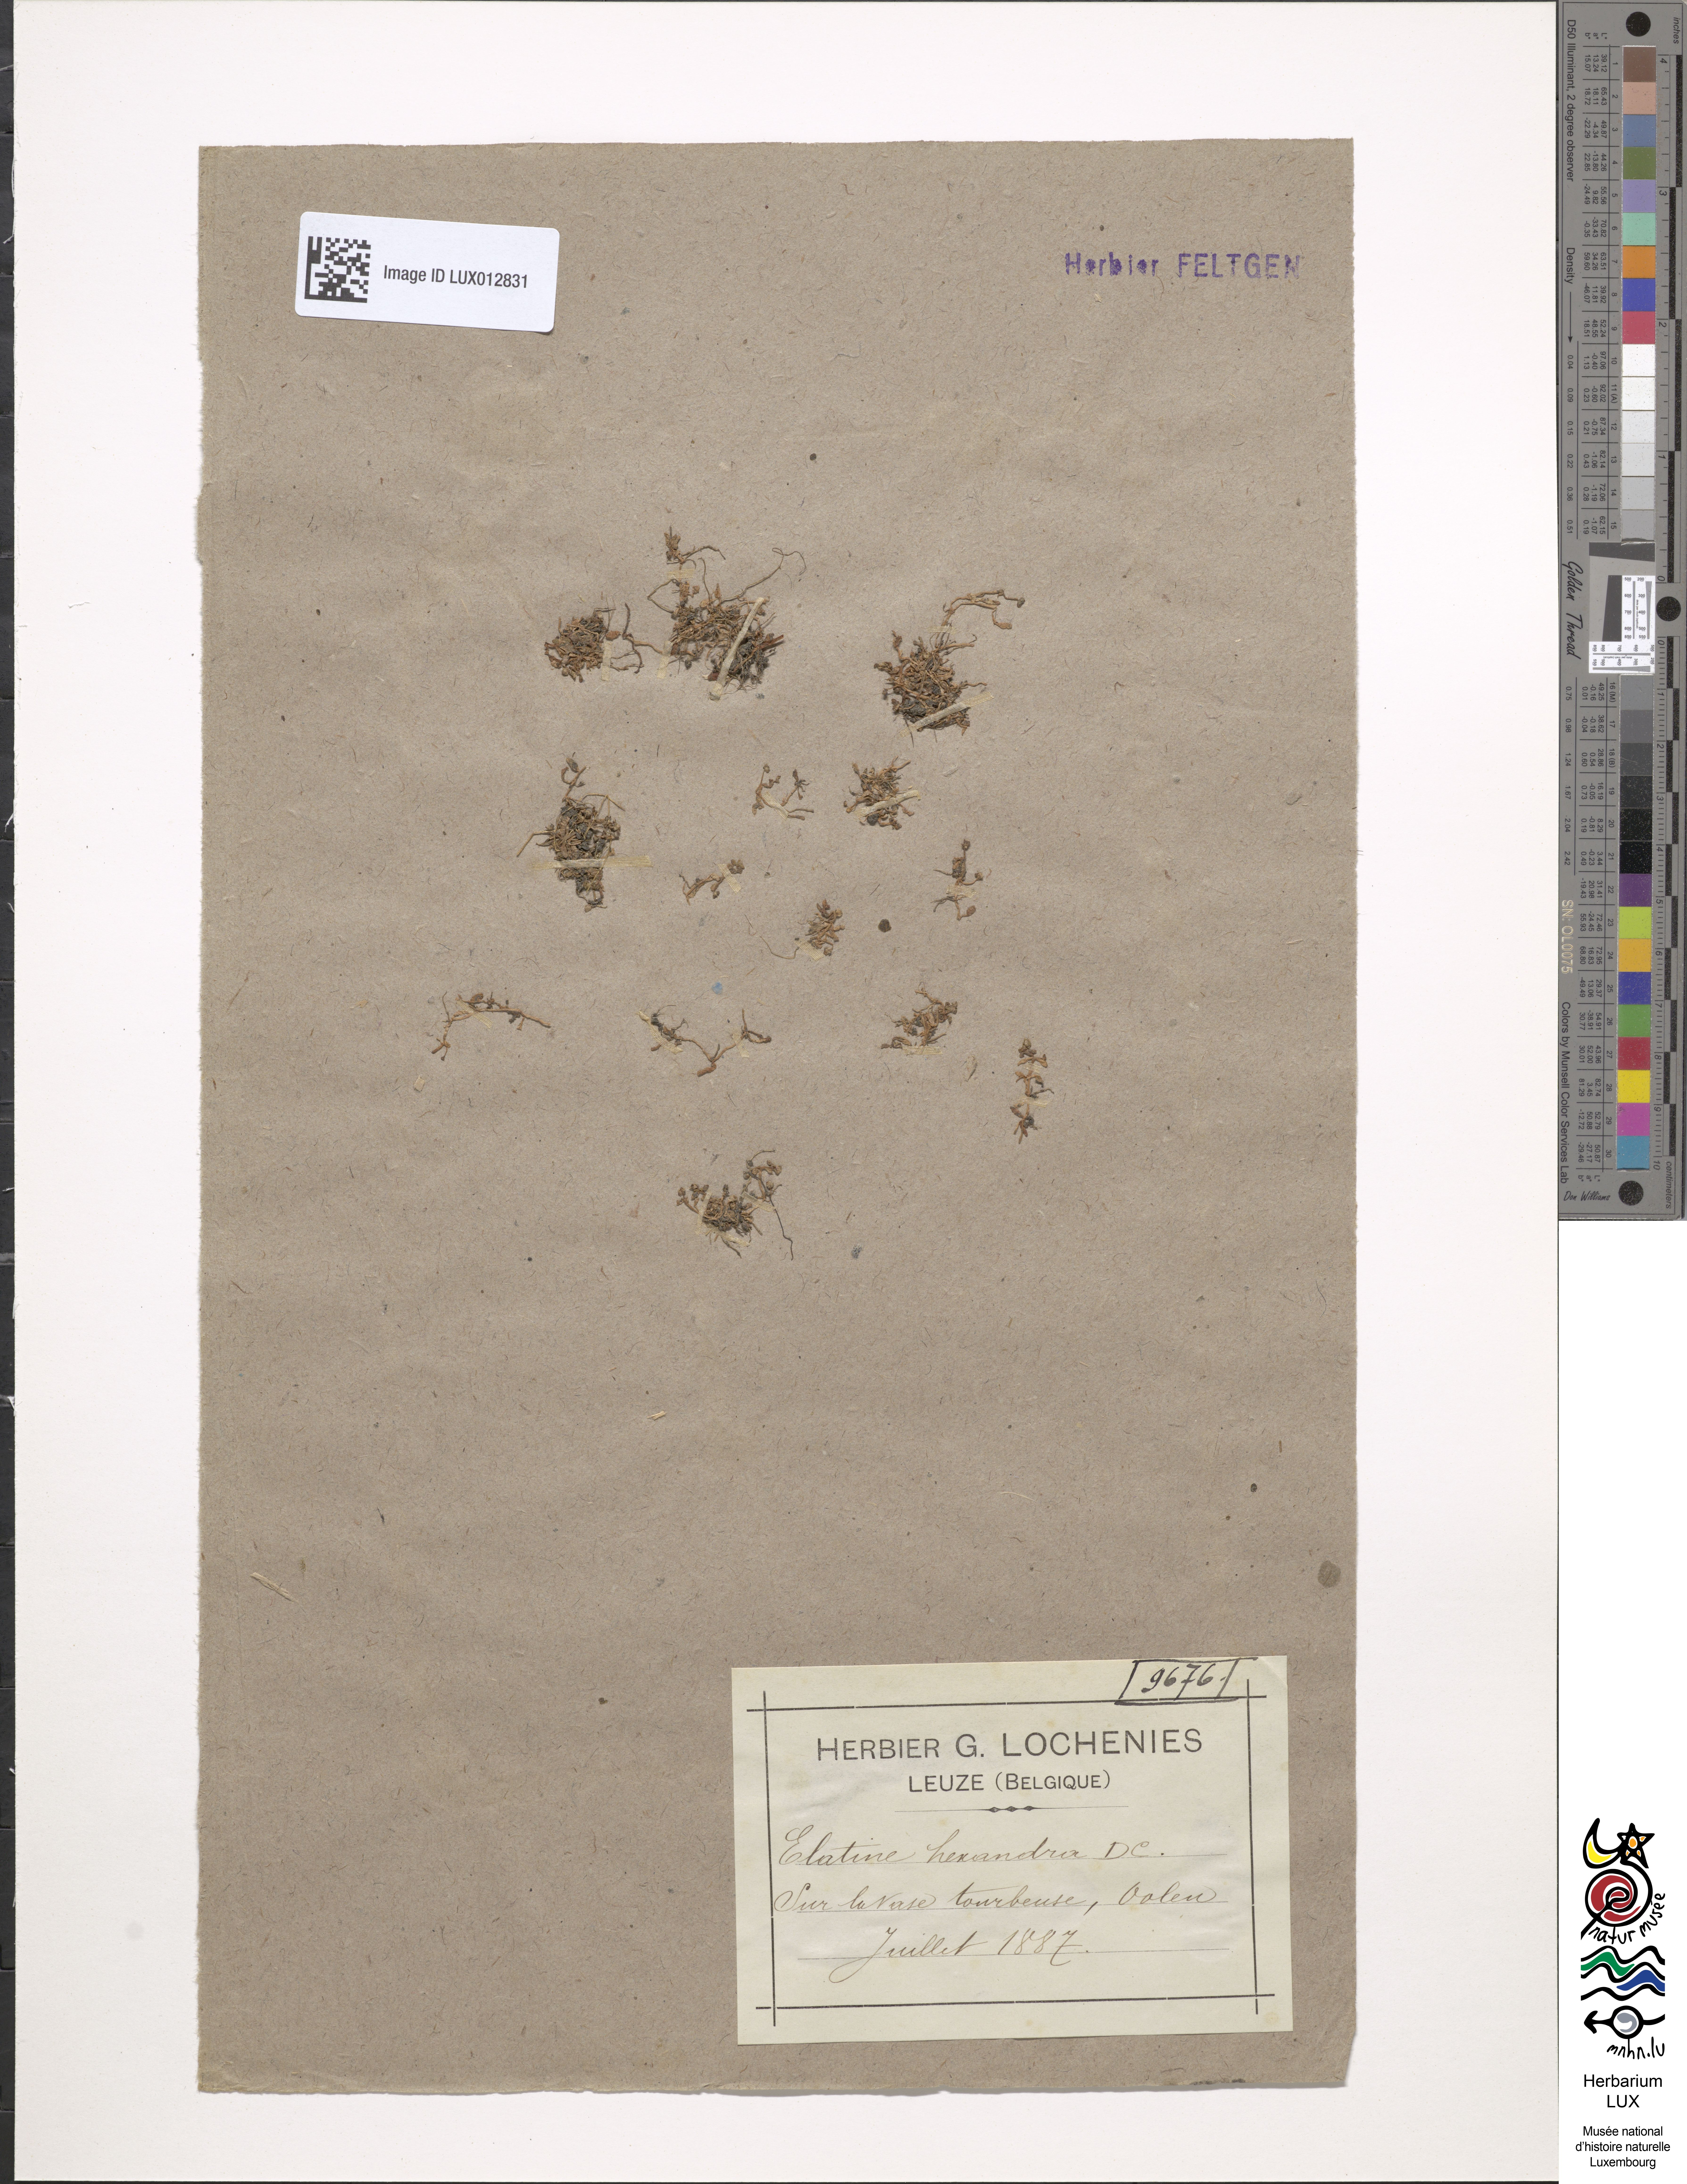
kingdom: Plantae
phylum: Tracheophyta
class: Magnoliopsida
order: Malpighiales
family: Elatinaceae
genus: Elatine
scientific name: Elatine hexandra
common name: Six-stamened waterwort
